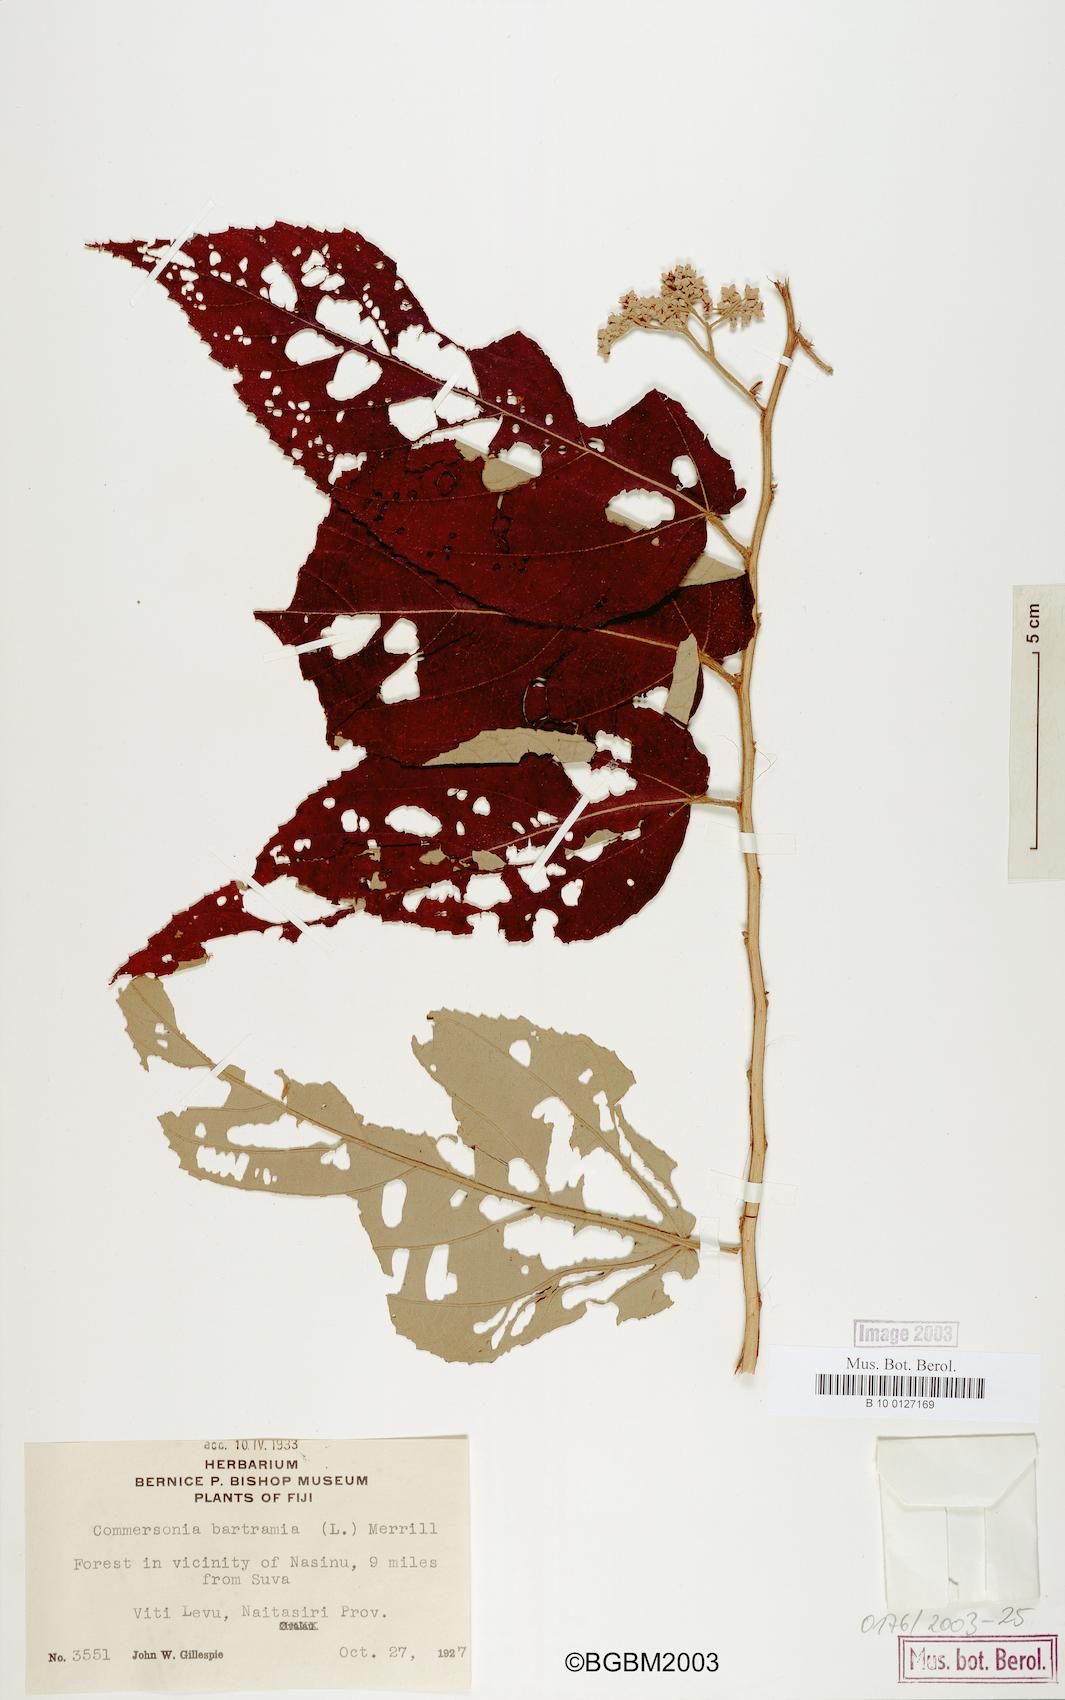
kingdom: Plantae
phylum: Tracheophyta
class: Magnoliopsida
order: Malvales
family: Malvaceae
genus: Commersonia
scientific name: Commersonia bartramia
